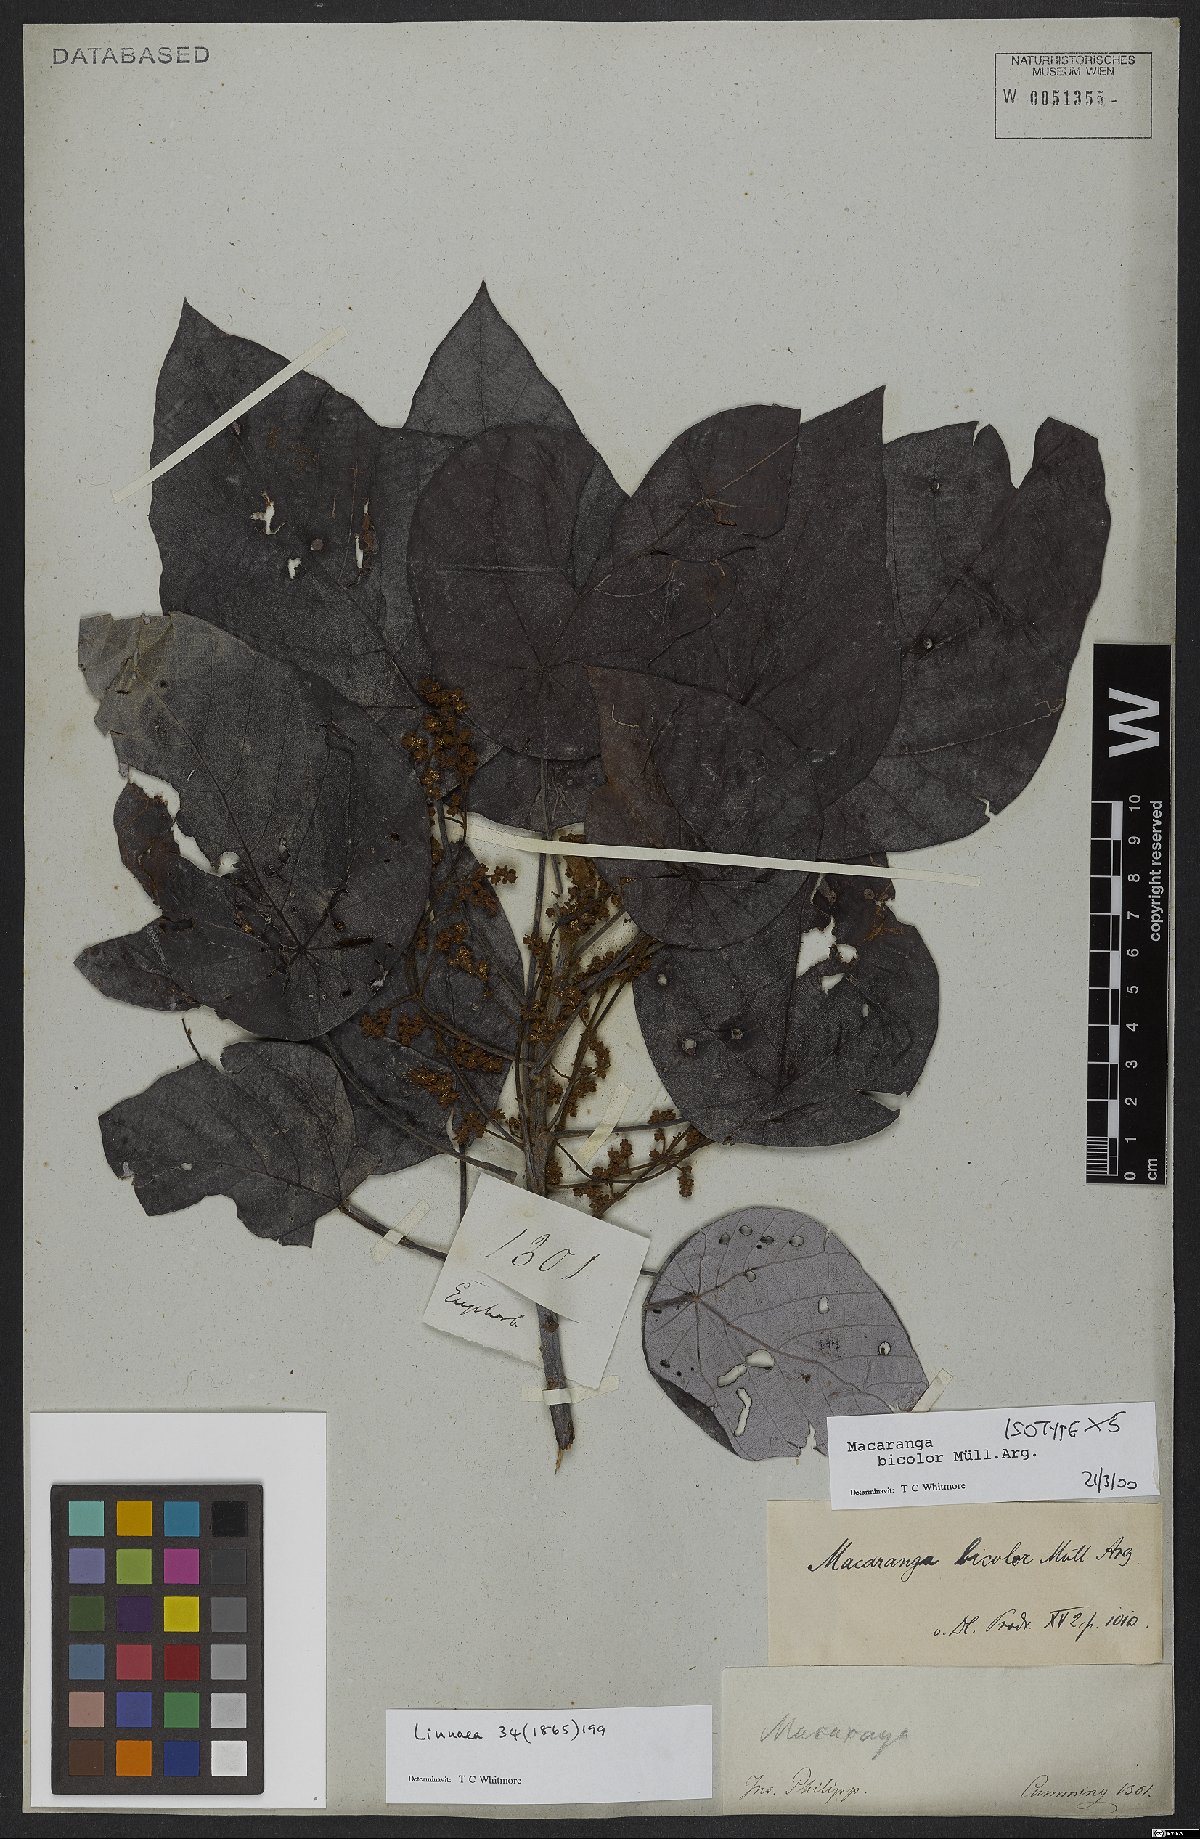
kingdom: Plantae
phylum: Tracheophyta
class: Magnoliopsida
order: Malpighiales
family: Euphorbiaceae
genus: Macaranga
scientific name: Macaranga bicolor
